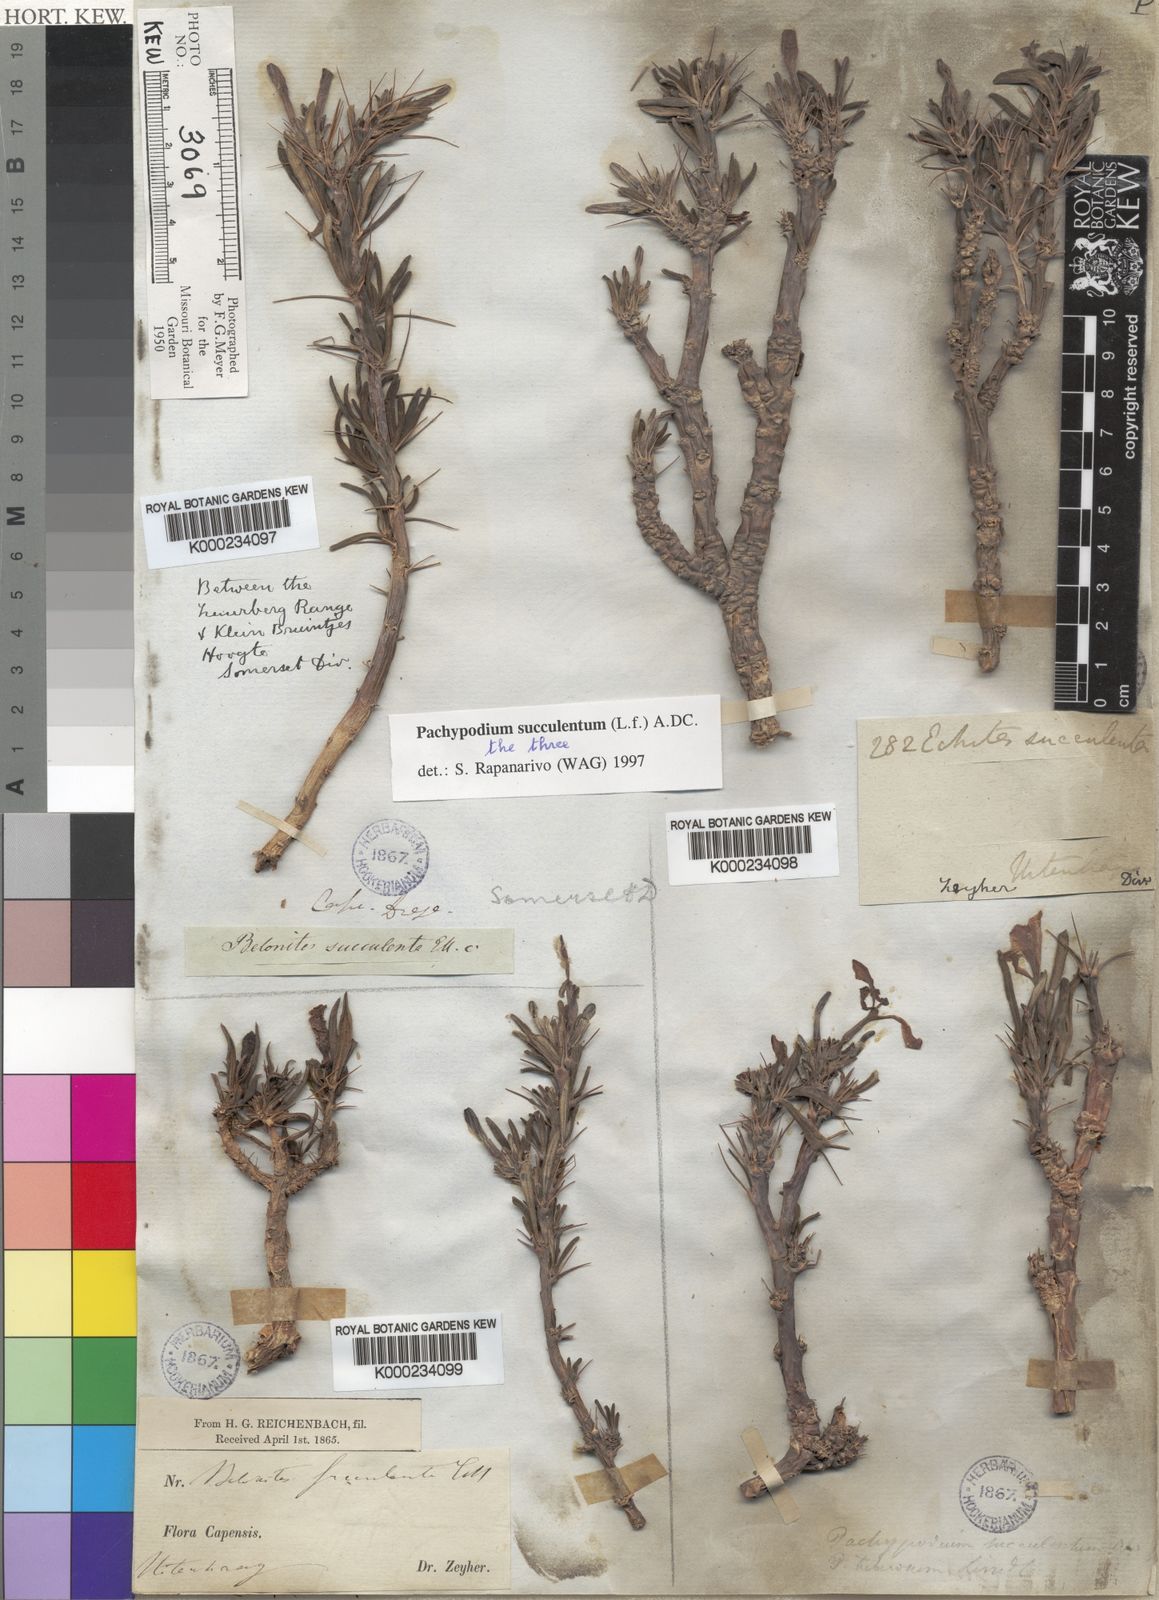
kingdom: Plantae
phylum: Tracheophyta
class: Magnoliopsida
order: Gentianales
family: Apocynaceae
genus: Pachypodium
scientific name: Pachypodium
